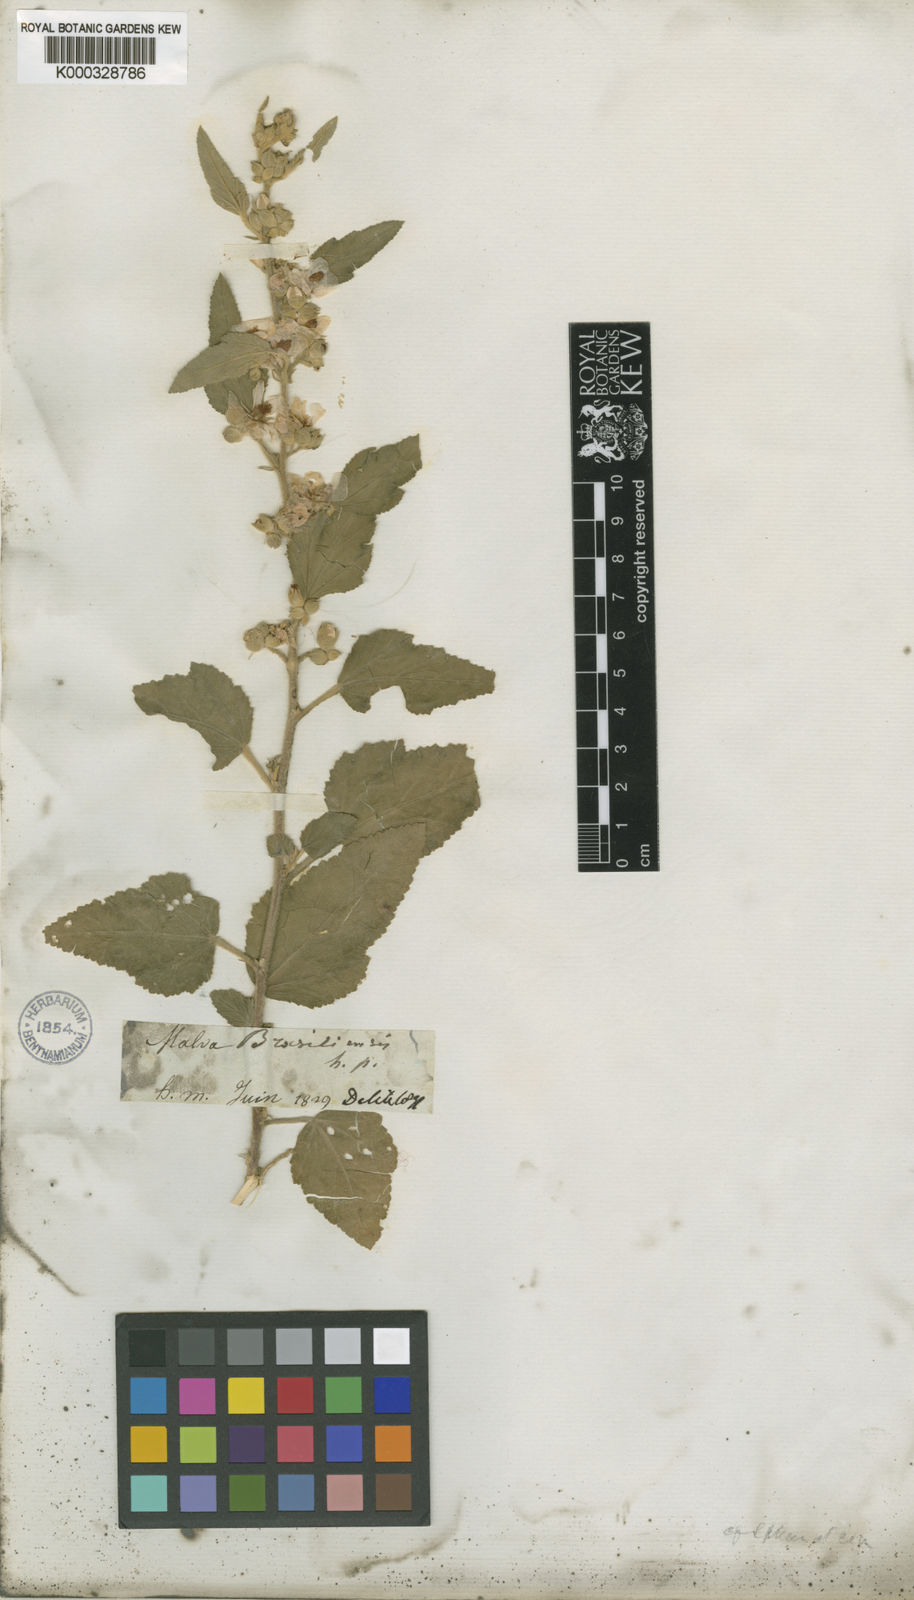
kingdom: Plantae
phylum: Tracheophyta
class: Magnoliopsida
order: Malvales
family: Malvaceae
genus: Sphaeralcea
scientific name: Sphaeralcea miniata
